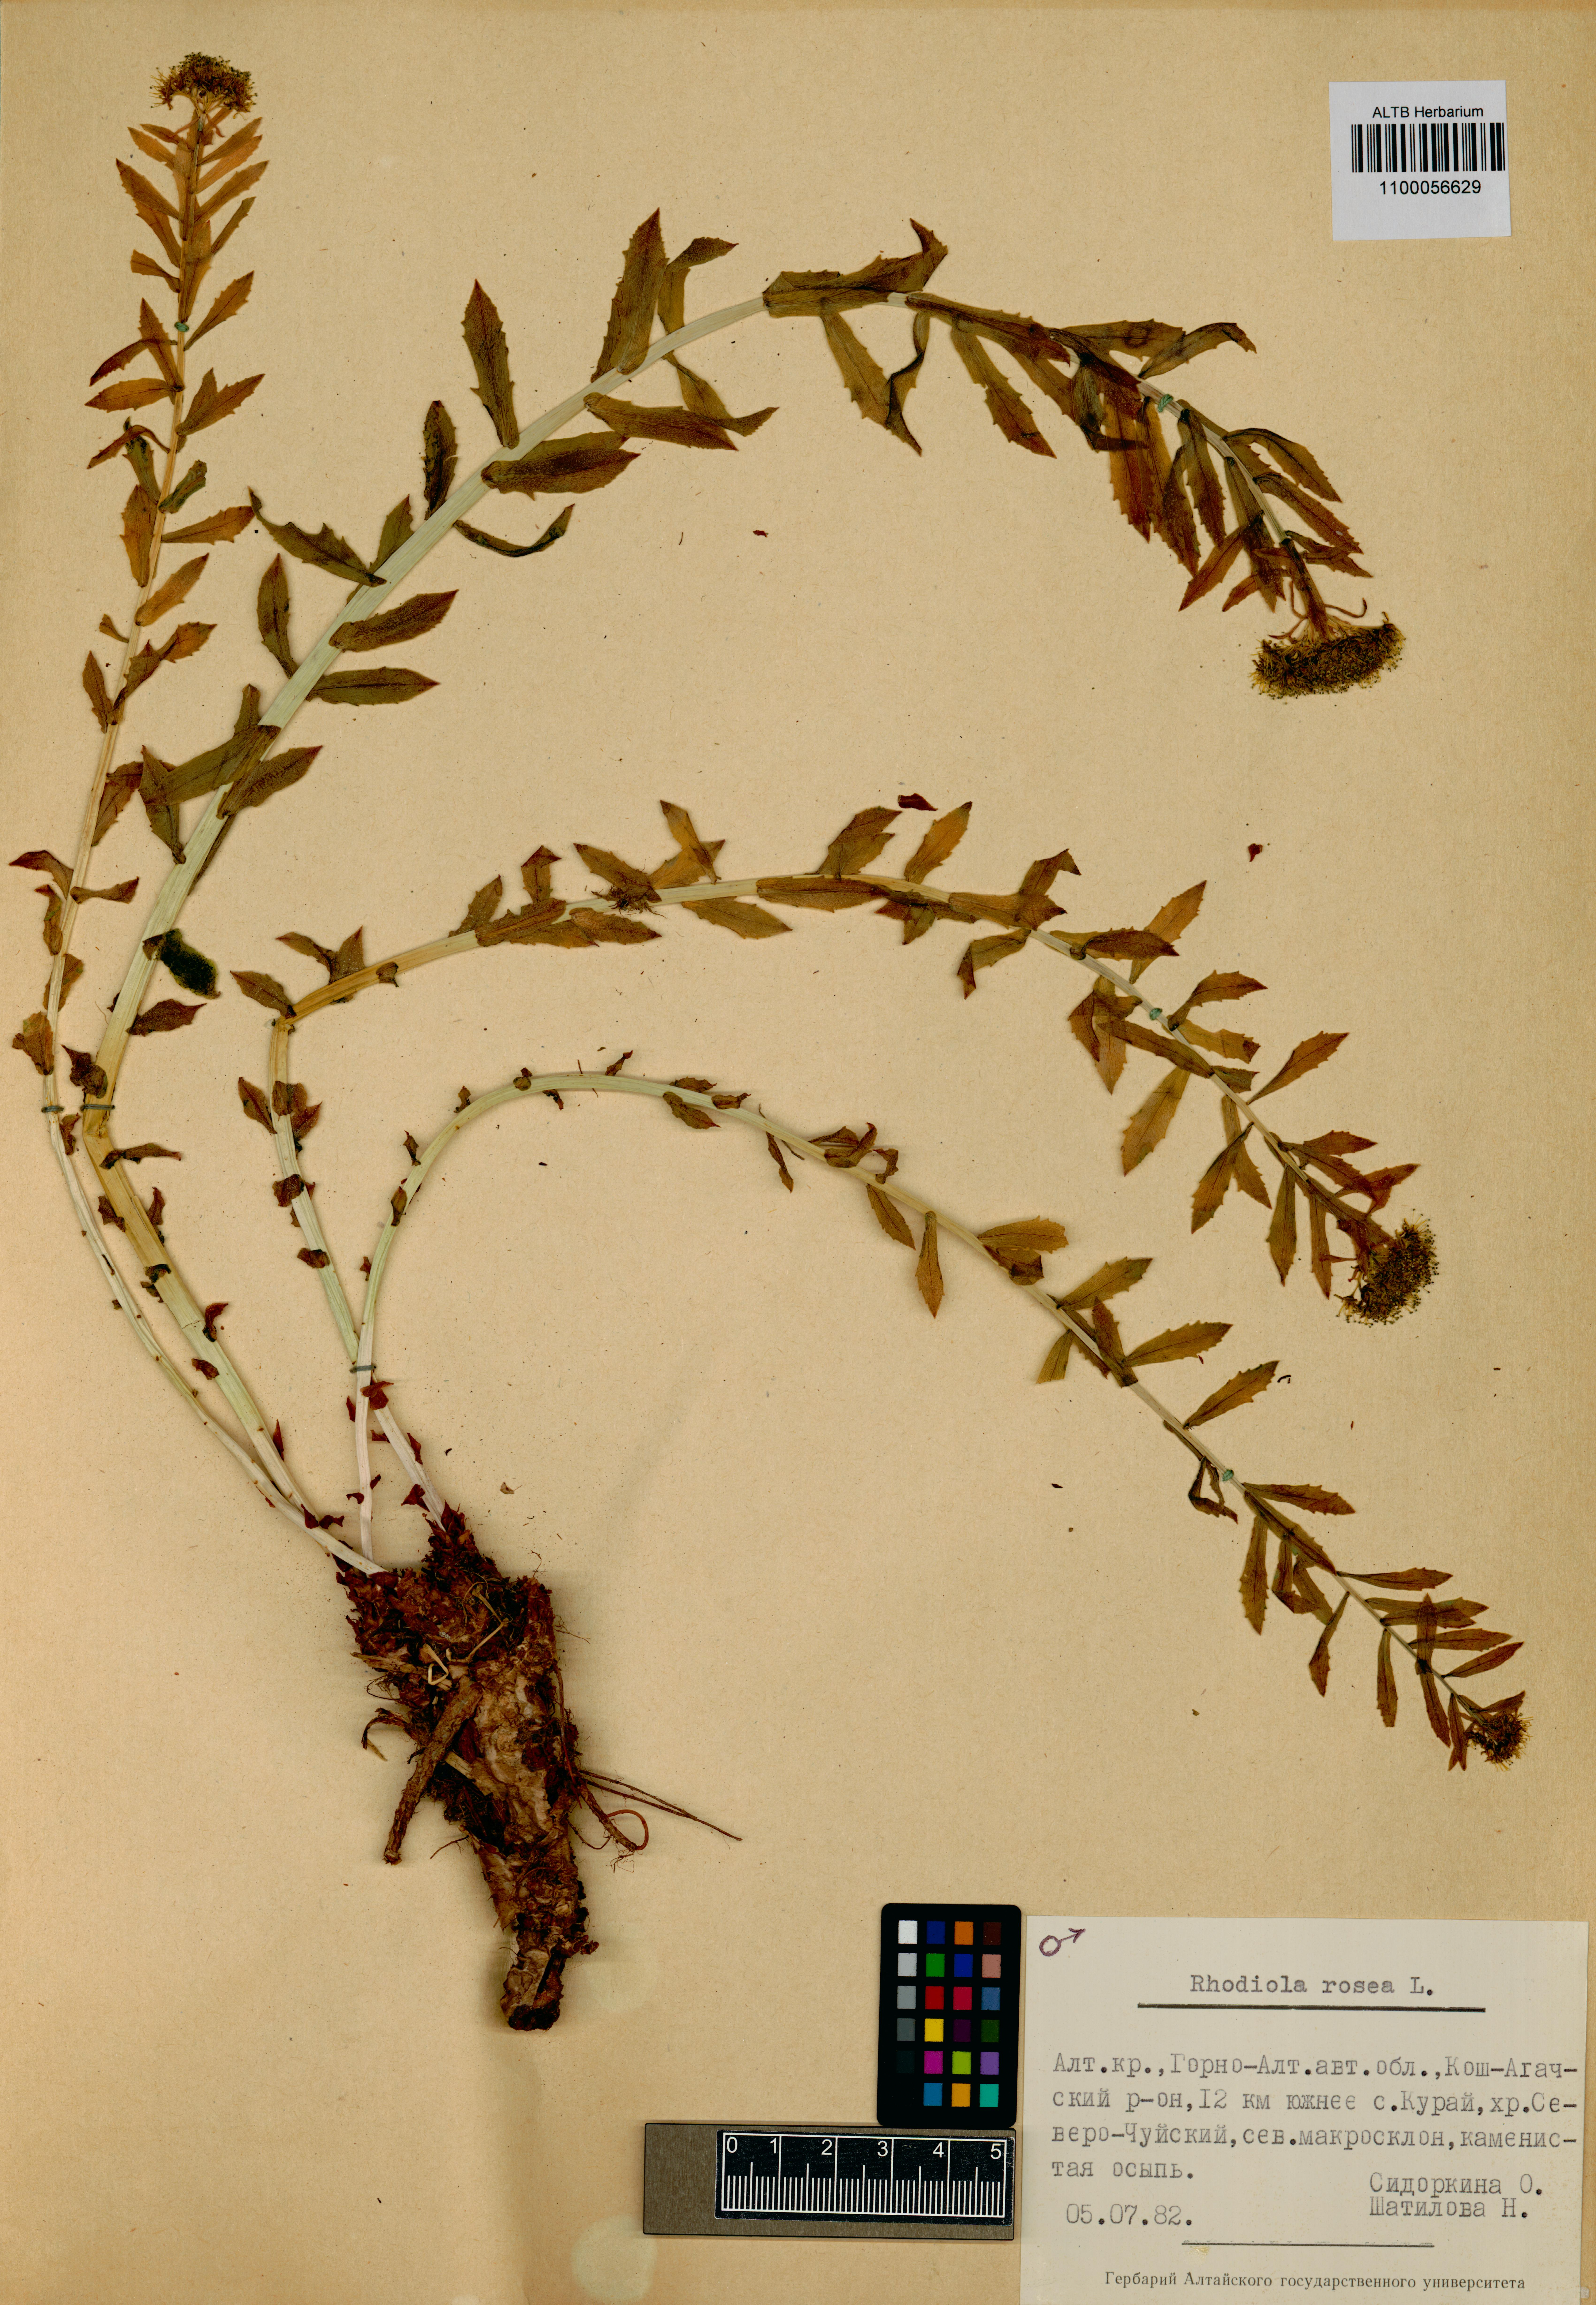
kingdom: Plantae
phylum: Tracheophyta
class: Magnoliopsida
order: Saxifragales
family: Crassulaceae
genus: Rhodiola
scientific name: Rhodiola rosea
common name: Roseroot
